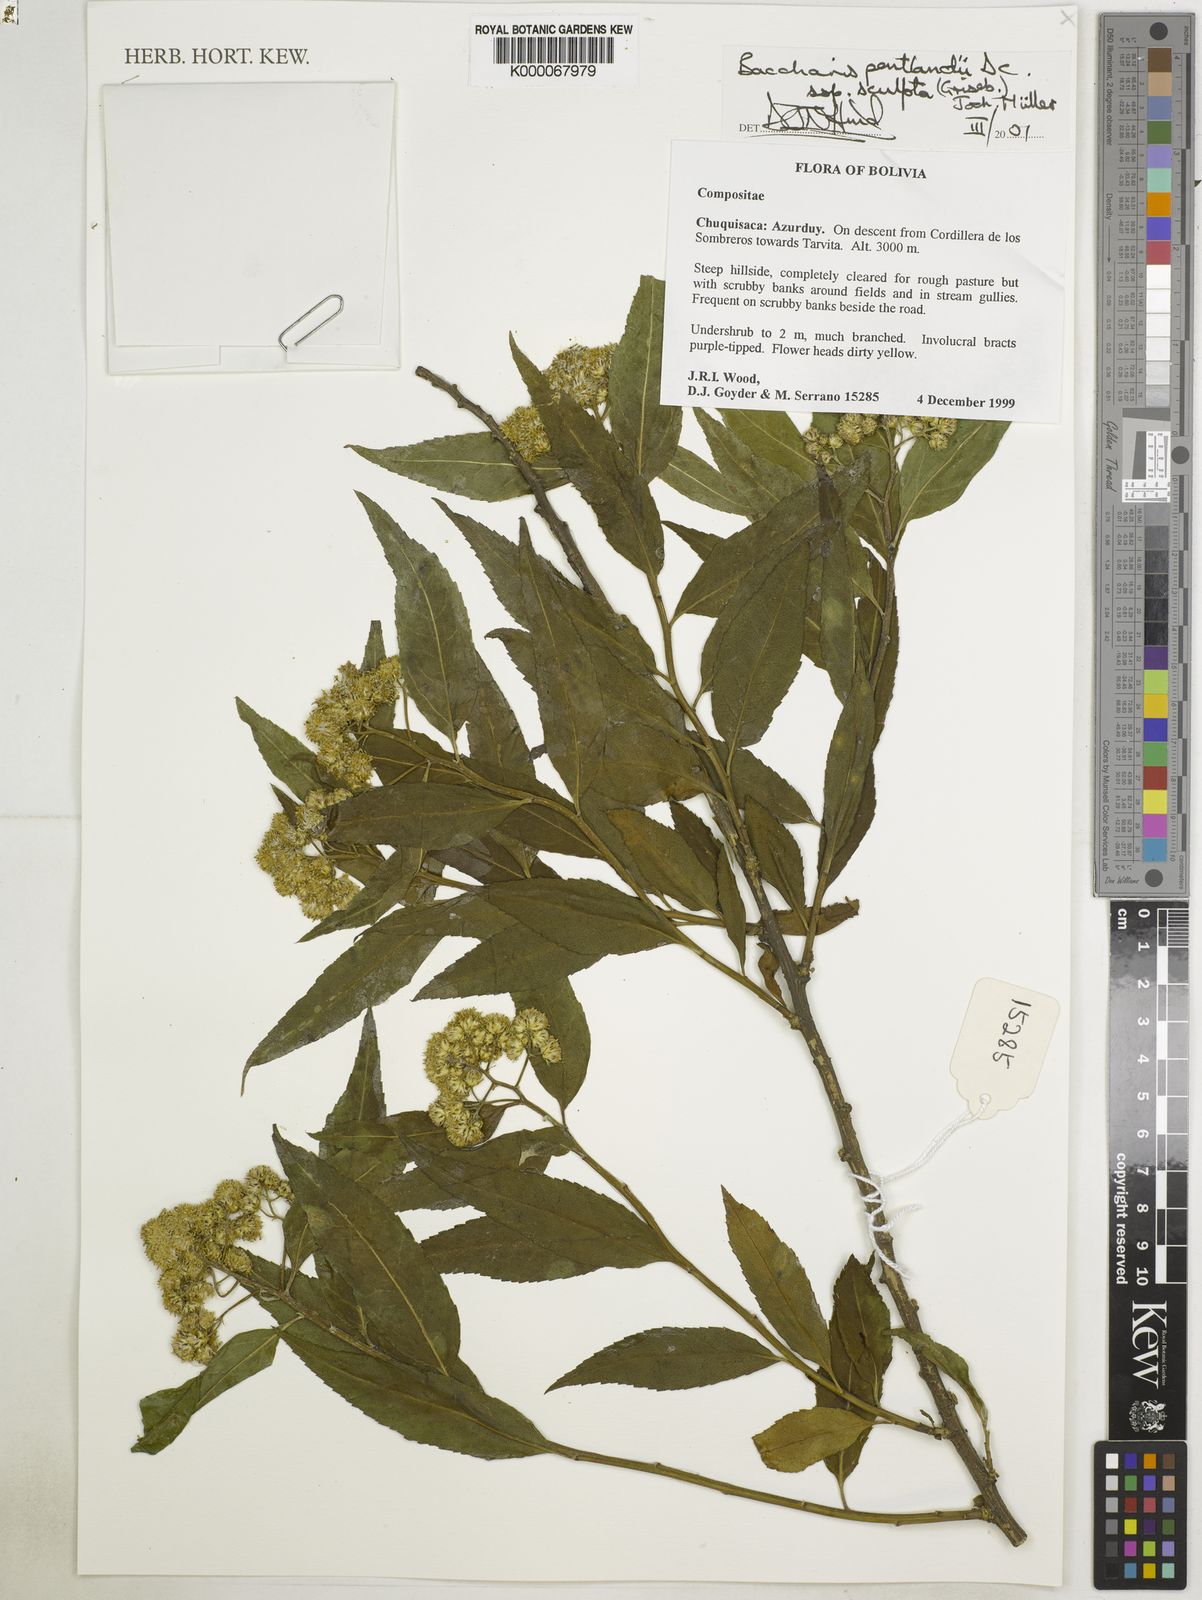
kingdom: Plantae
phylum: Tracheophyta
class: Magnoliopsida
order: Asterales
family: Asteraceae
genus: Baccharis
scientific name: Baccharis pentlandii
